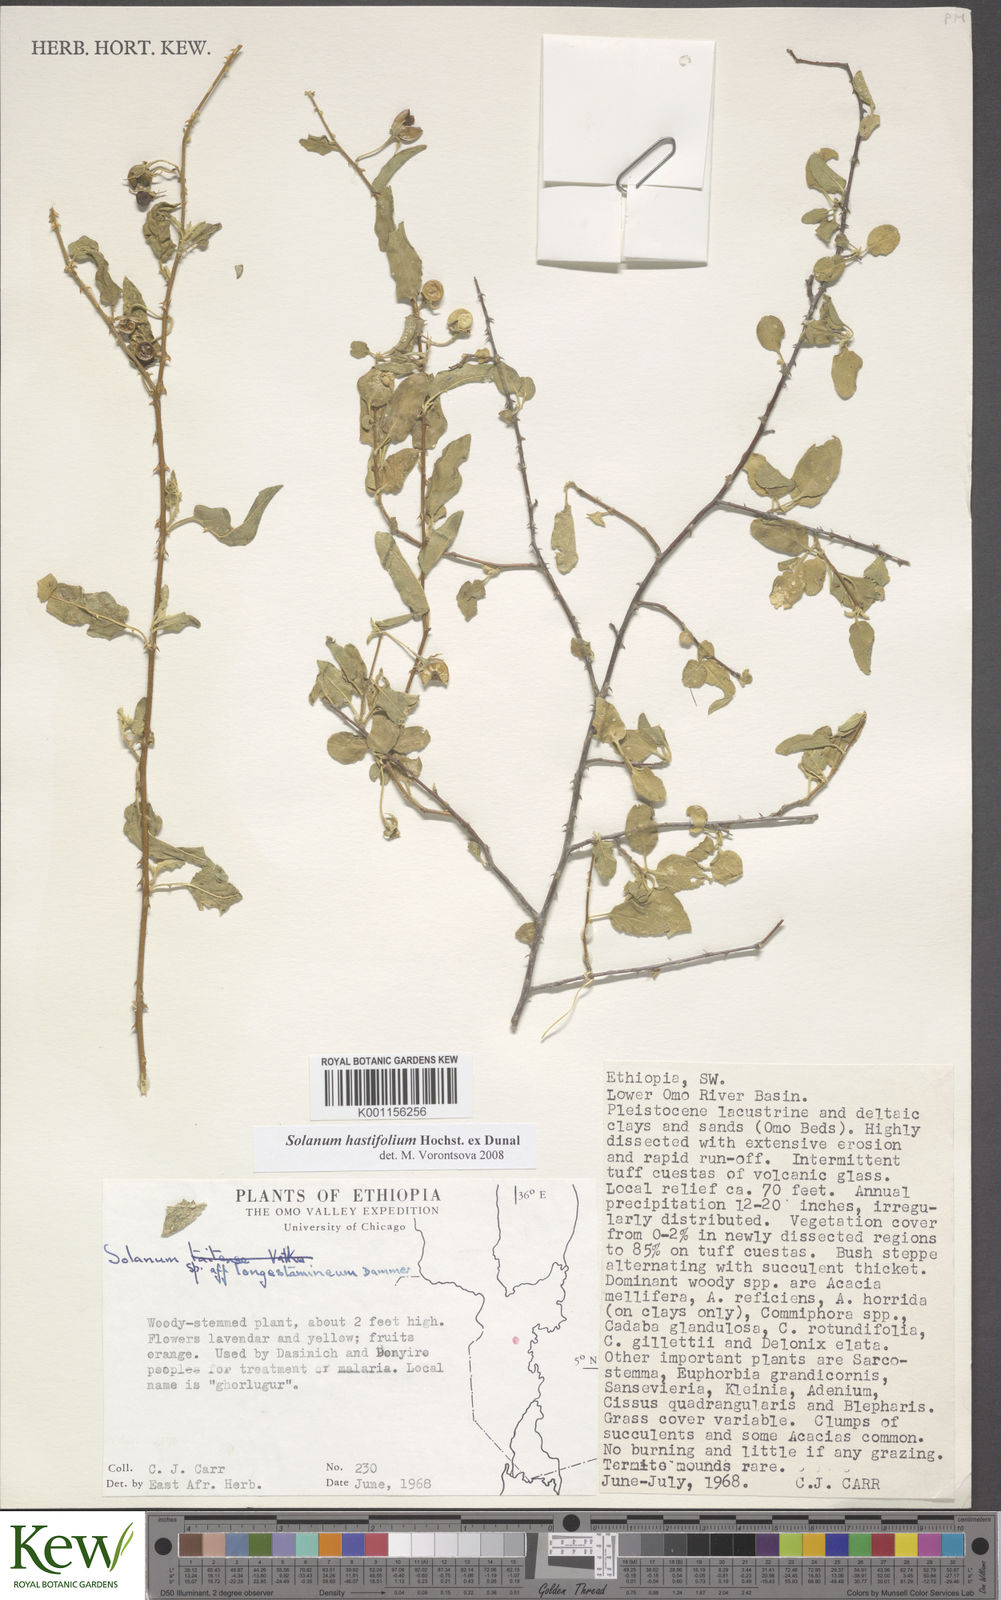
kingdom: Plantae
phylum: Tracheophyta
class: Magnoliopsida
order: Solanales
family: Solanaceae
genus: Solanum
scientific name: Solanum hastifolium
